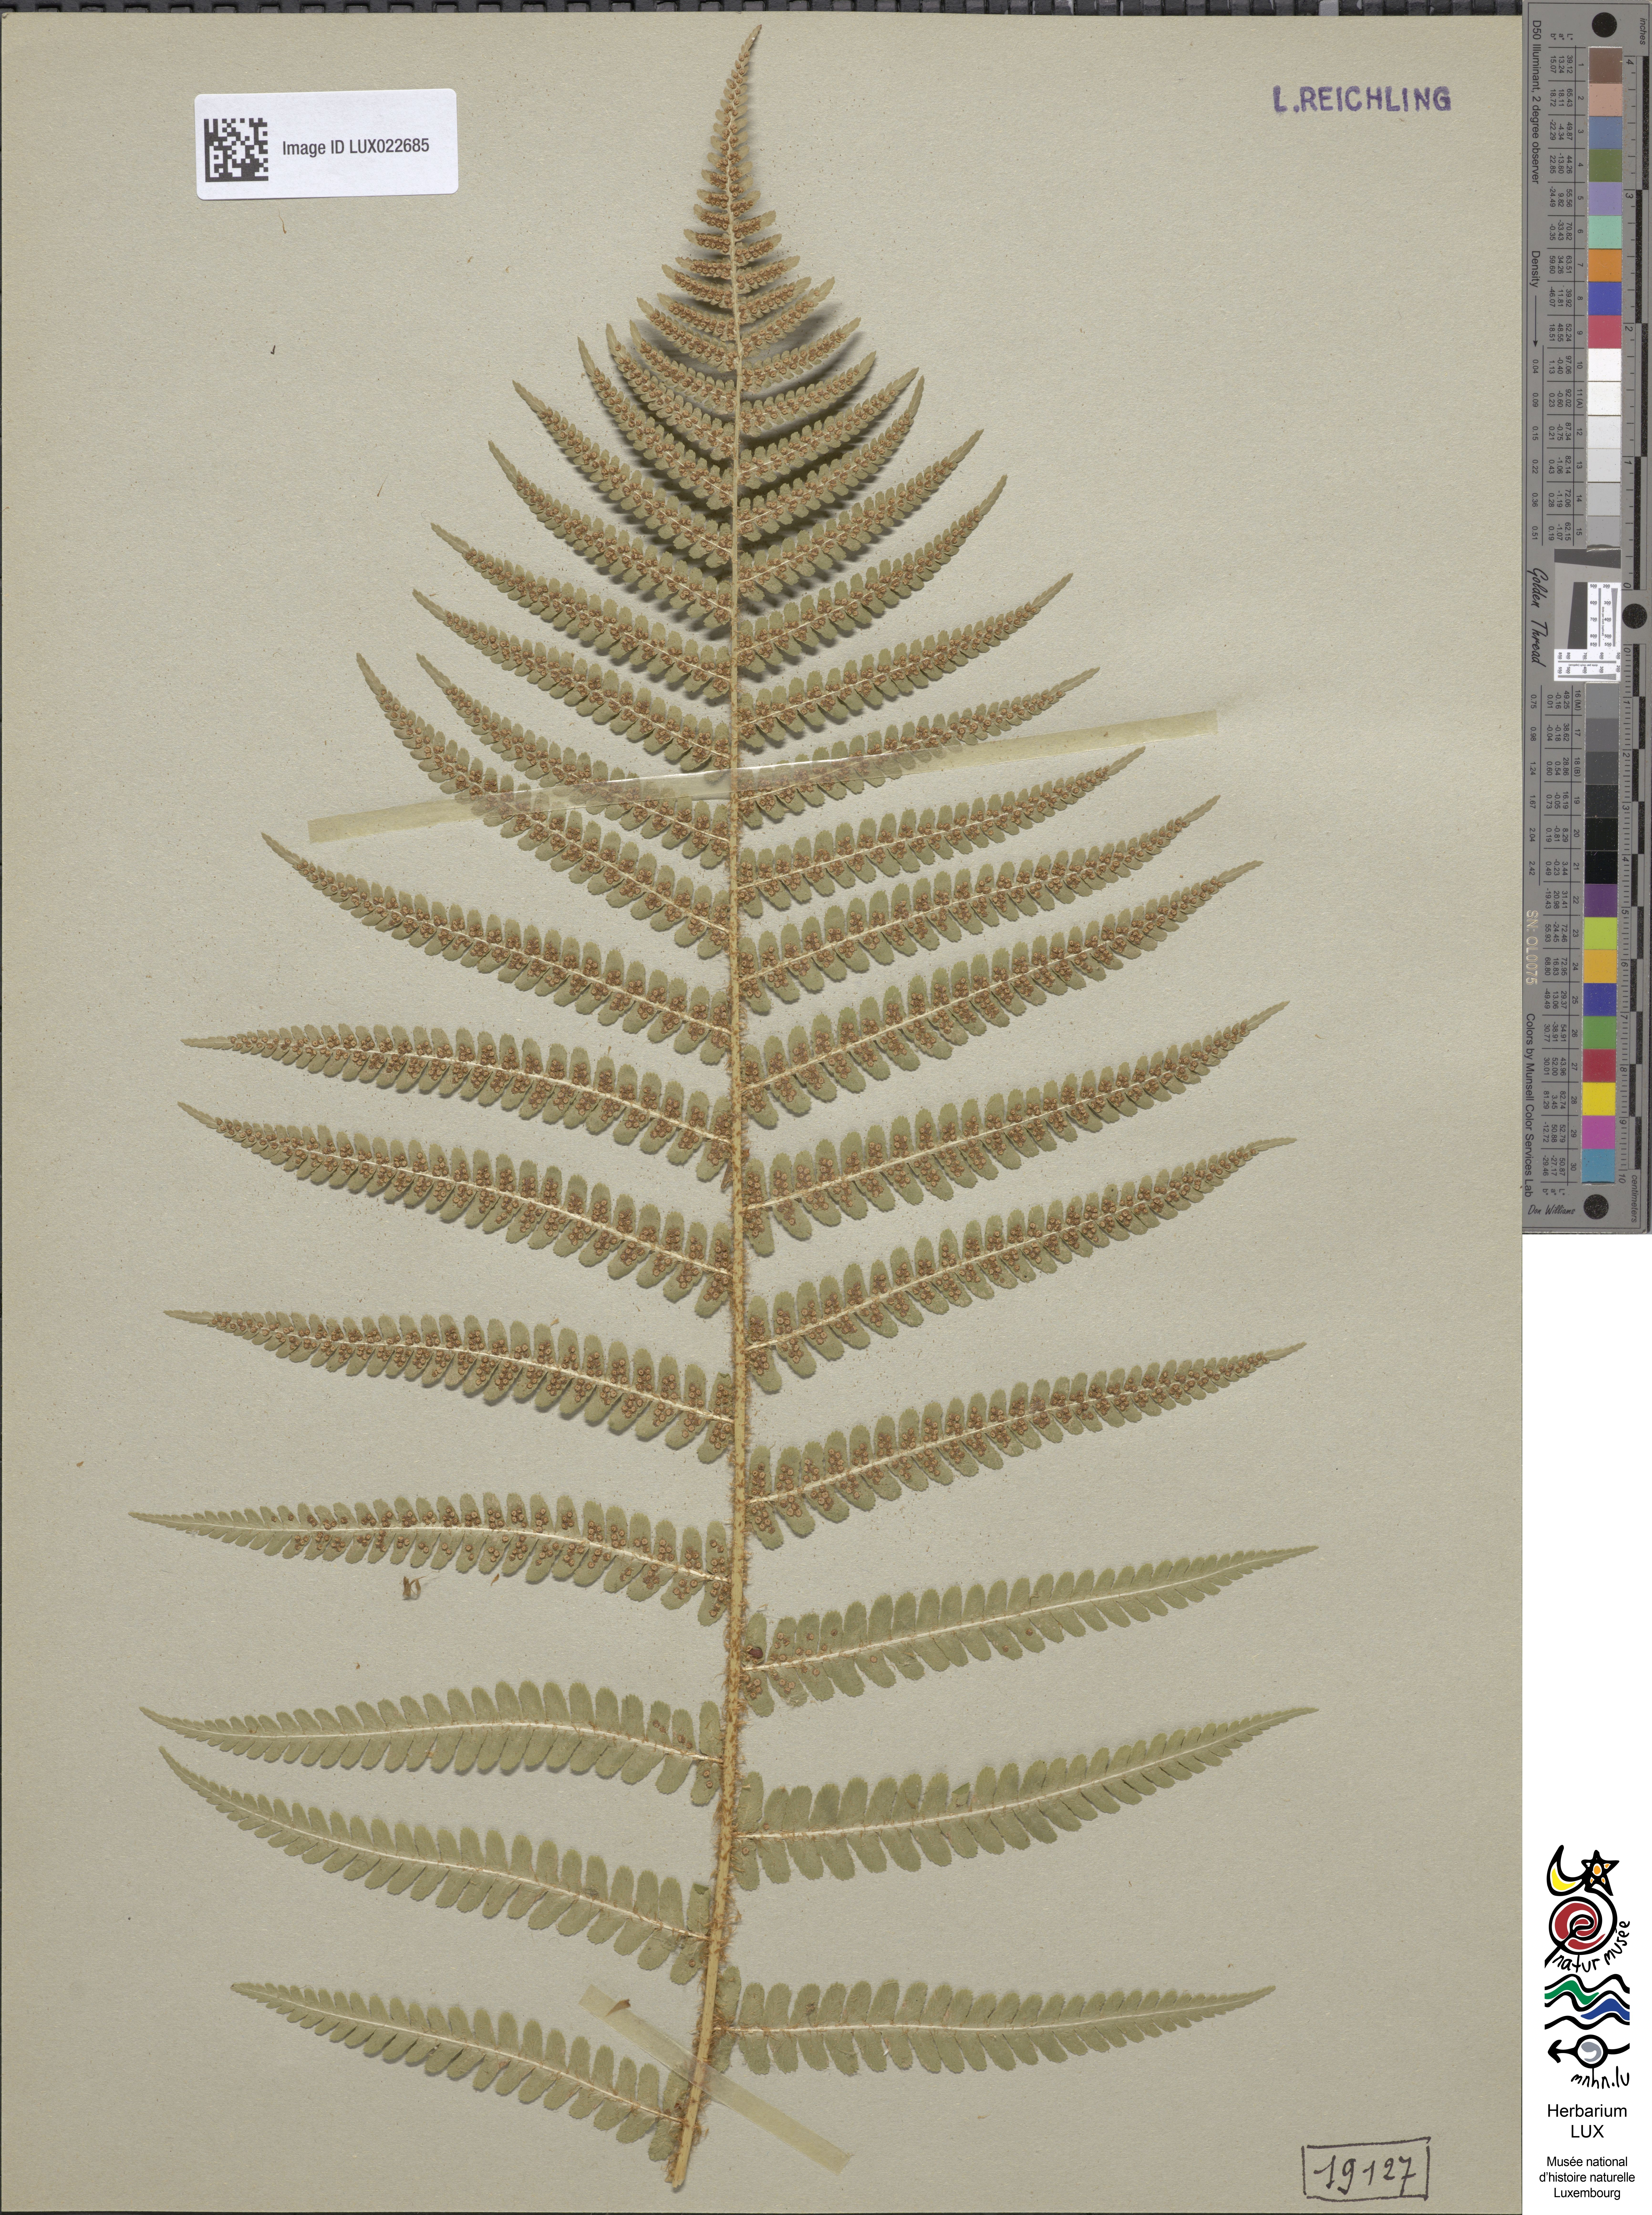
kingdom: Plantae
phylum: Tracheophyta
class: Polypodiopsida
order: Polypodiales
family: Dryopteridaceae
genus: Dryopteris
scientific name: Dryopteris filix-mas
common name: Male fern
